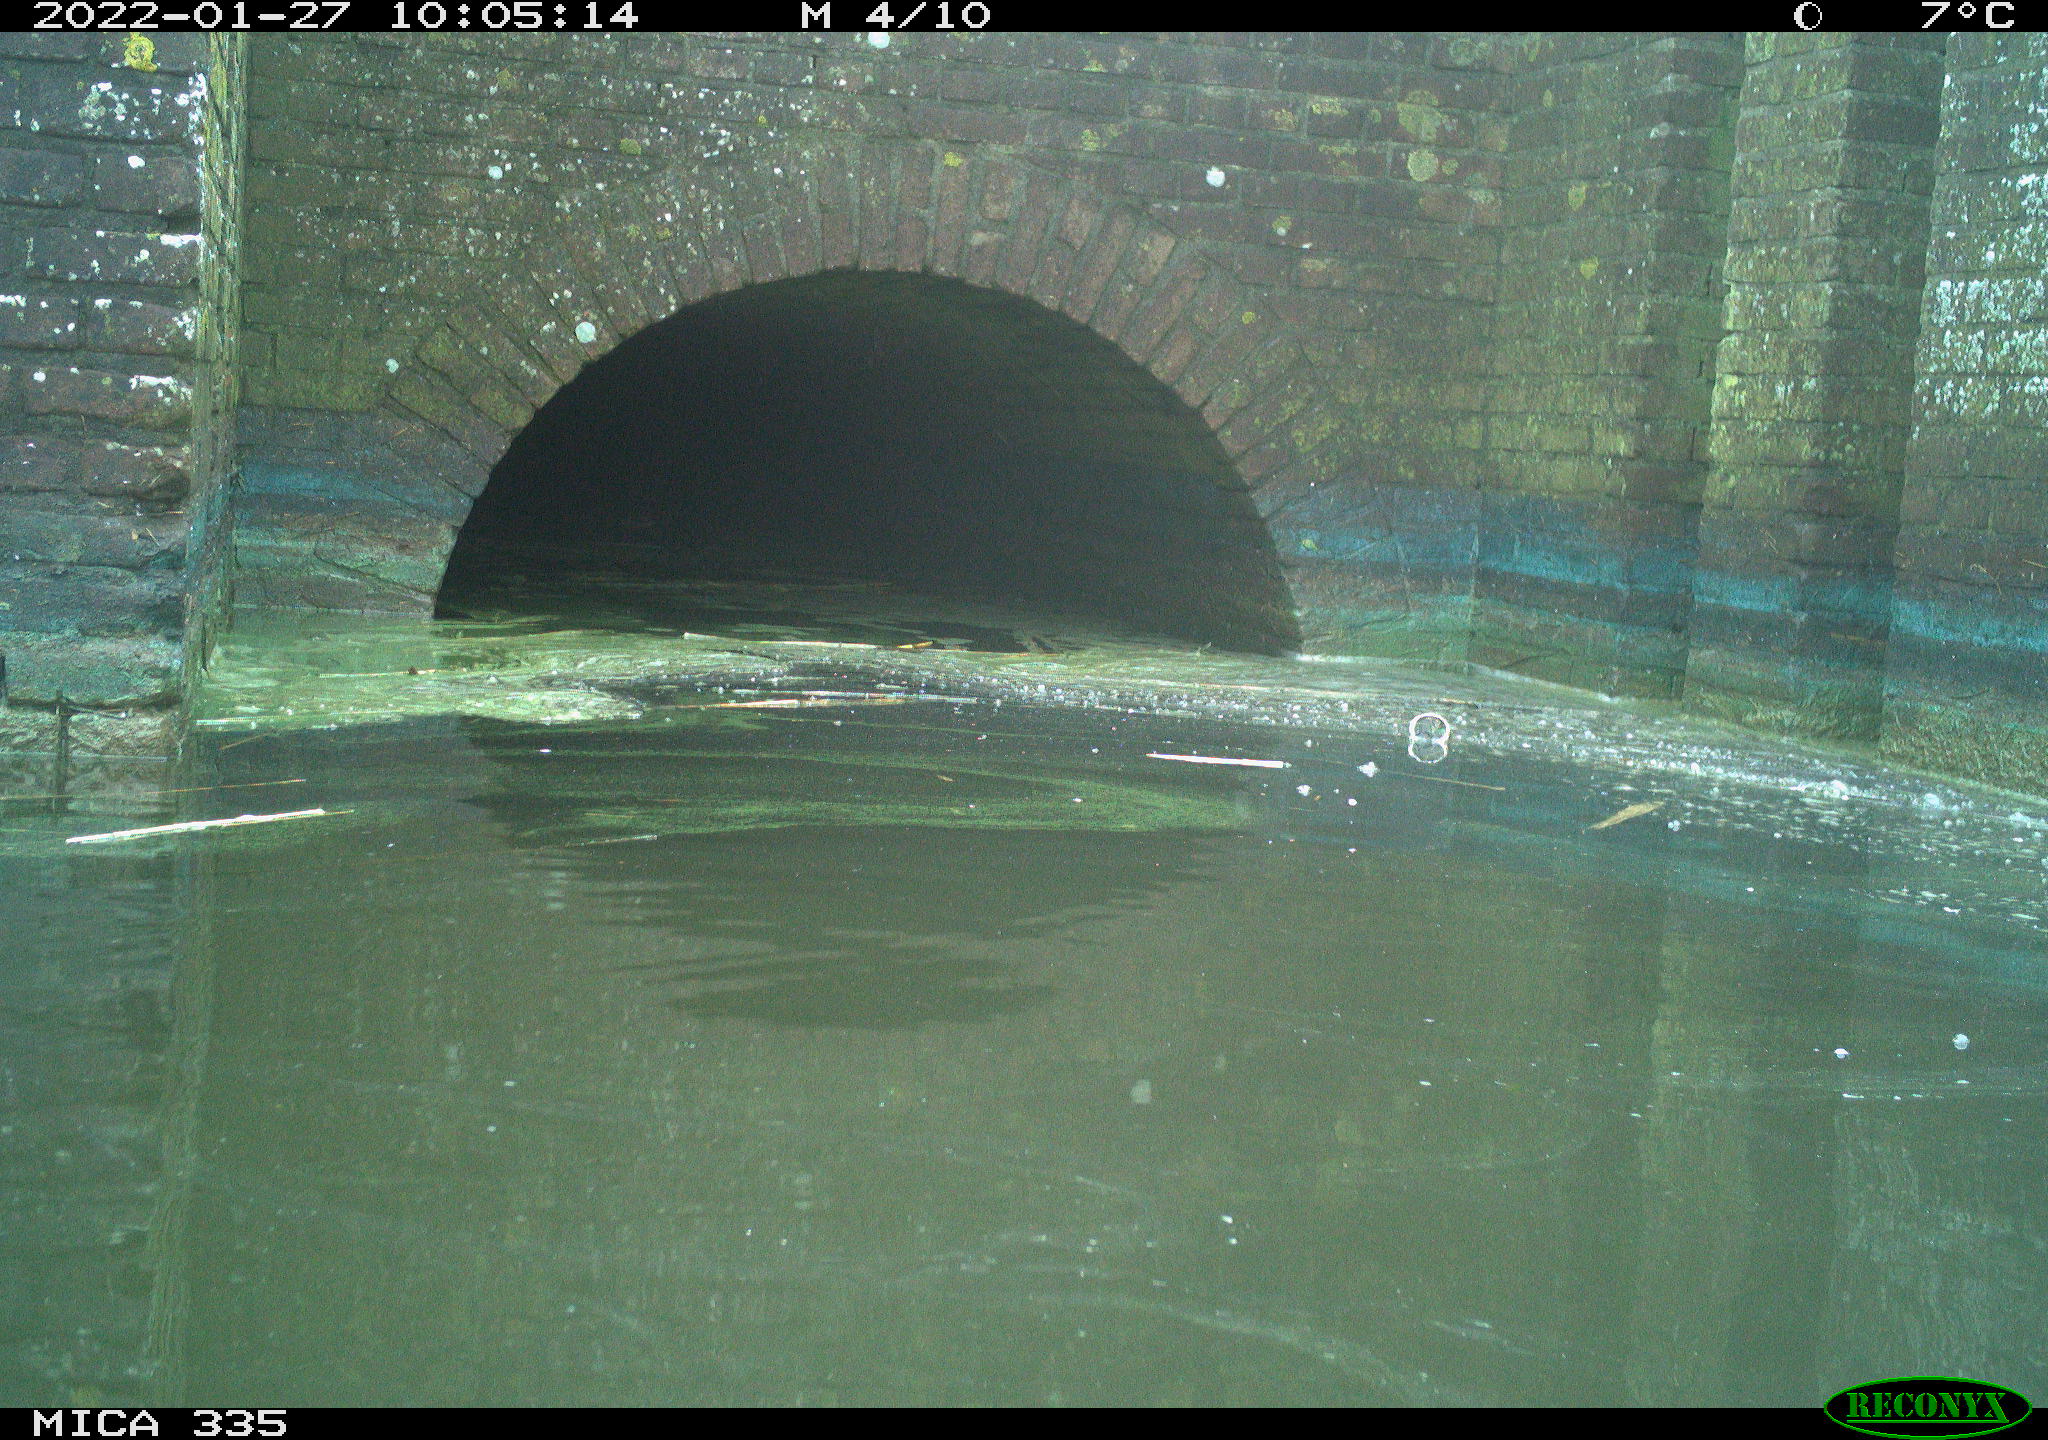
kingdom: Animalia
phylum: Chordata
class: Aves
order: Anseriformes
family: Anatidae
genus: Anas
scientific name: Anas platyrhynchos
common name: Mallard
